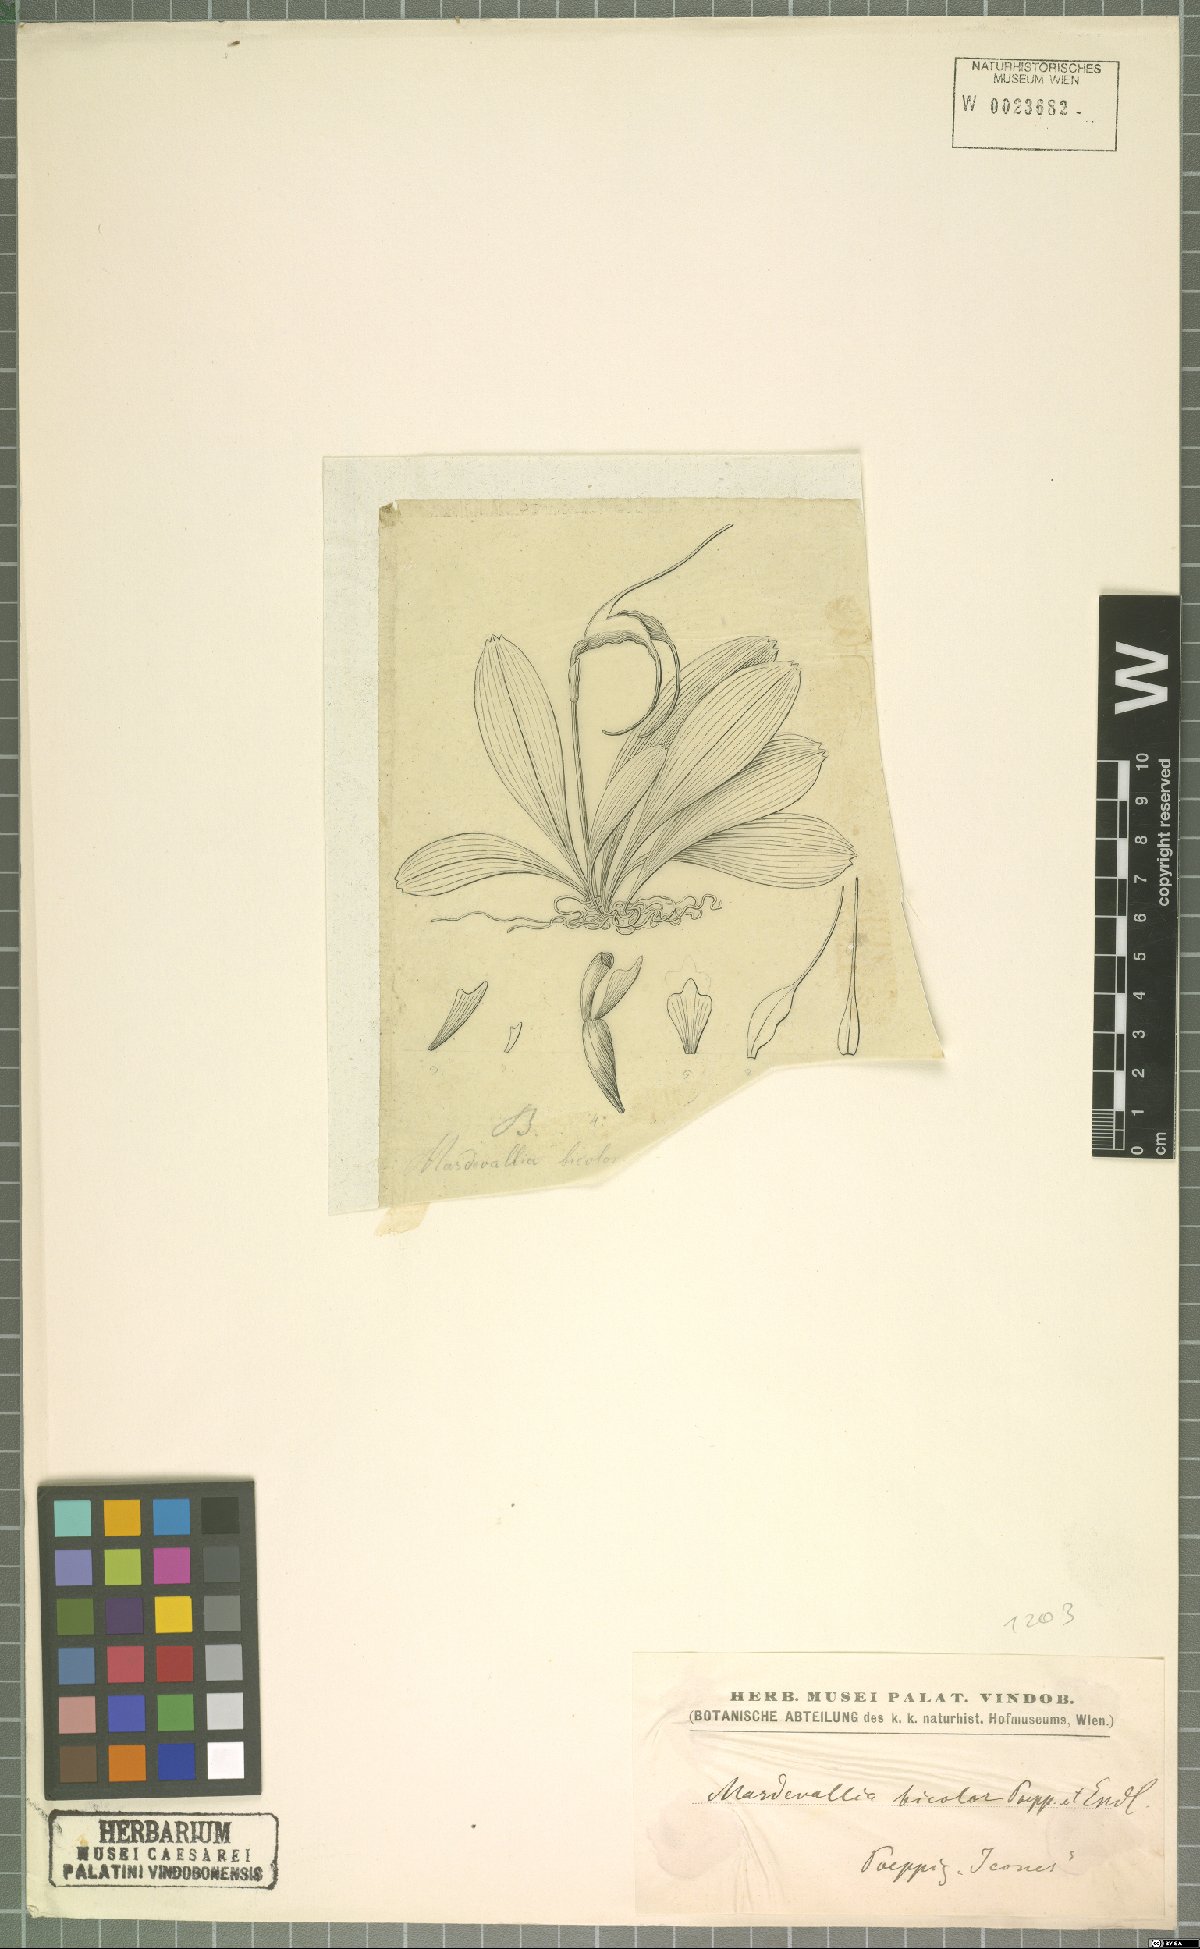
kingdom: Plantae
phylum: Tracheophyta
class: Liliopsida
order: Asparagales
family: Orchidaceae
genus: Masdevallia
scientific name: Masdevallia bicolor
